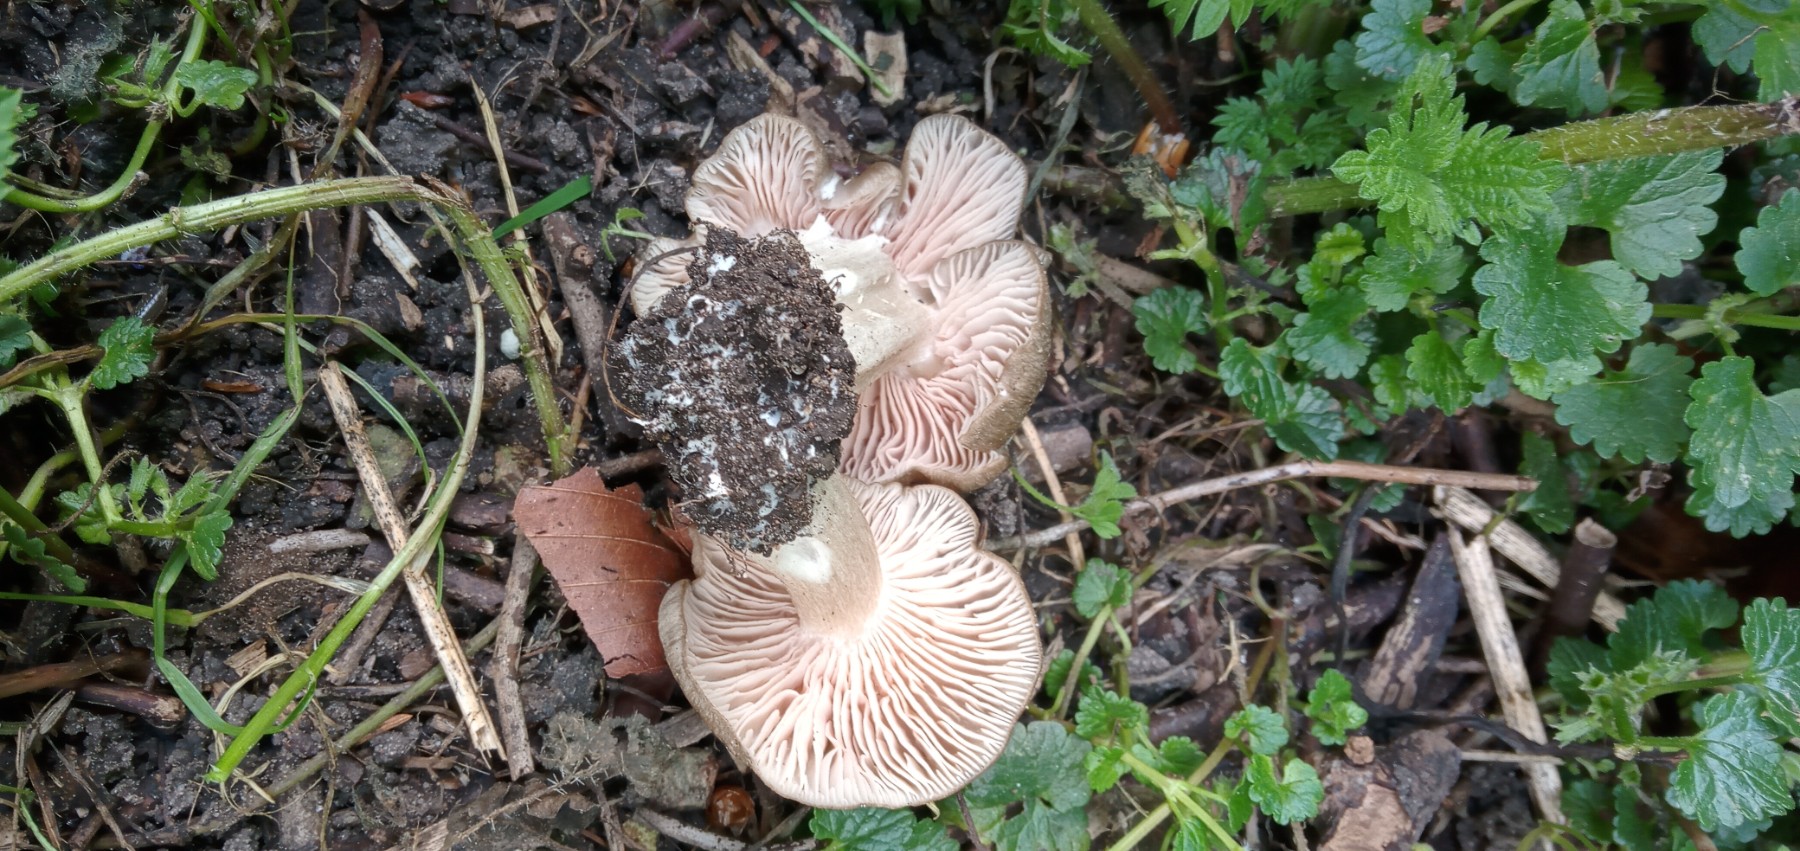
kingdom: Fungi
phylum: Basidiomycota
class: Agaricomycetes
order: Agaricales
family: Entolomataceae
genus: Entoloma
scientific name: Entoloma clypeatum
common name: flammet rødblad
